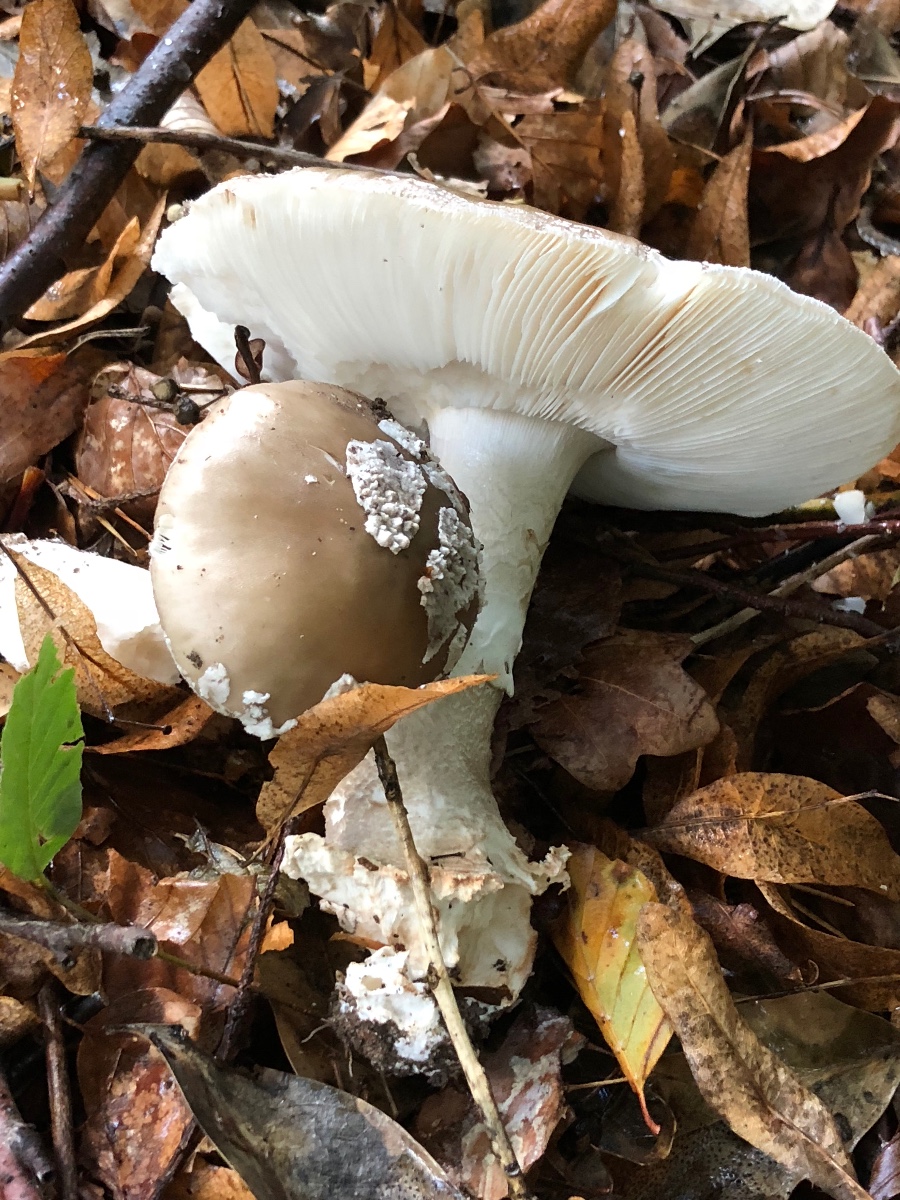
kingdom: Fungi
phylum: Basidiomycota
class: Agaricomycetes
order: Agaricales
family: Amanitaceae
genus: Amanita
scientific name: Amanita
